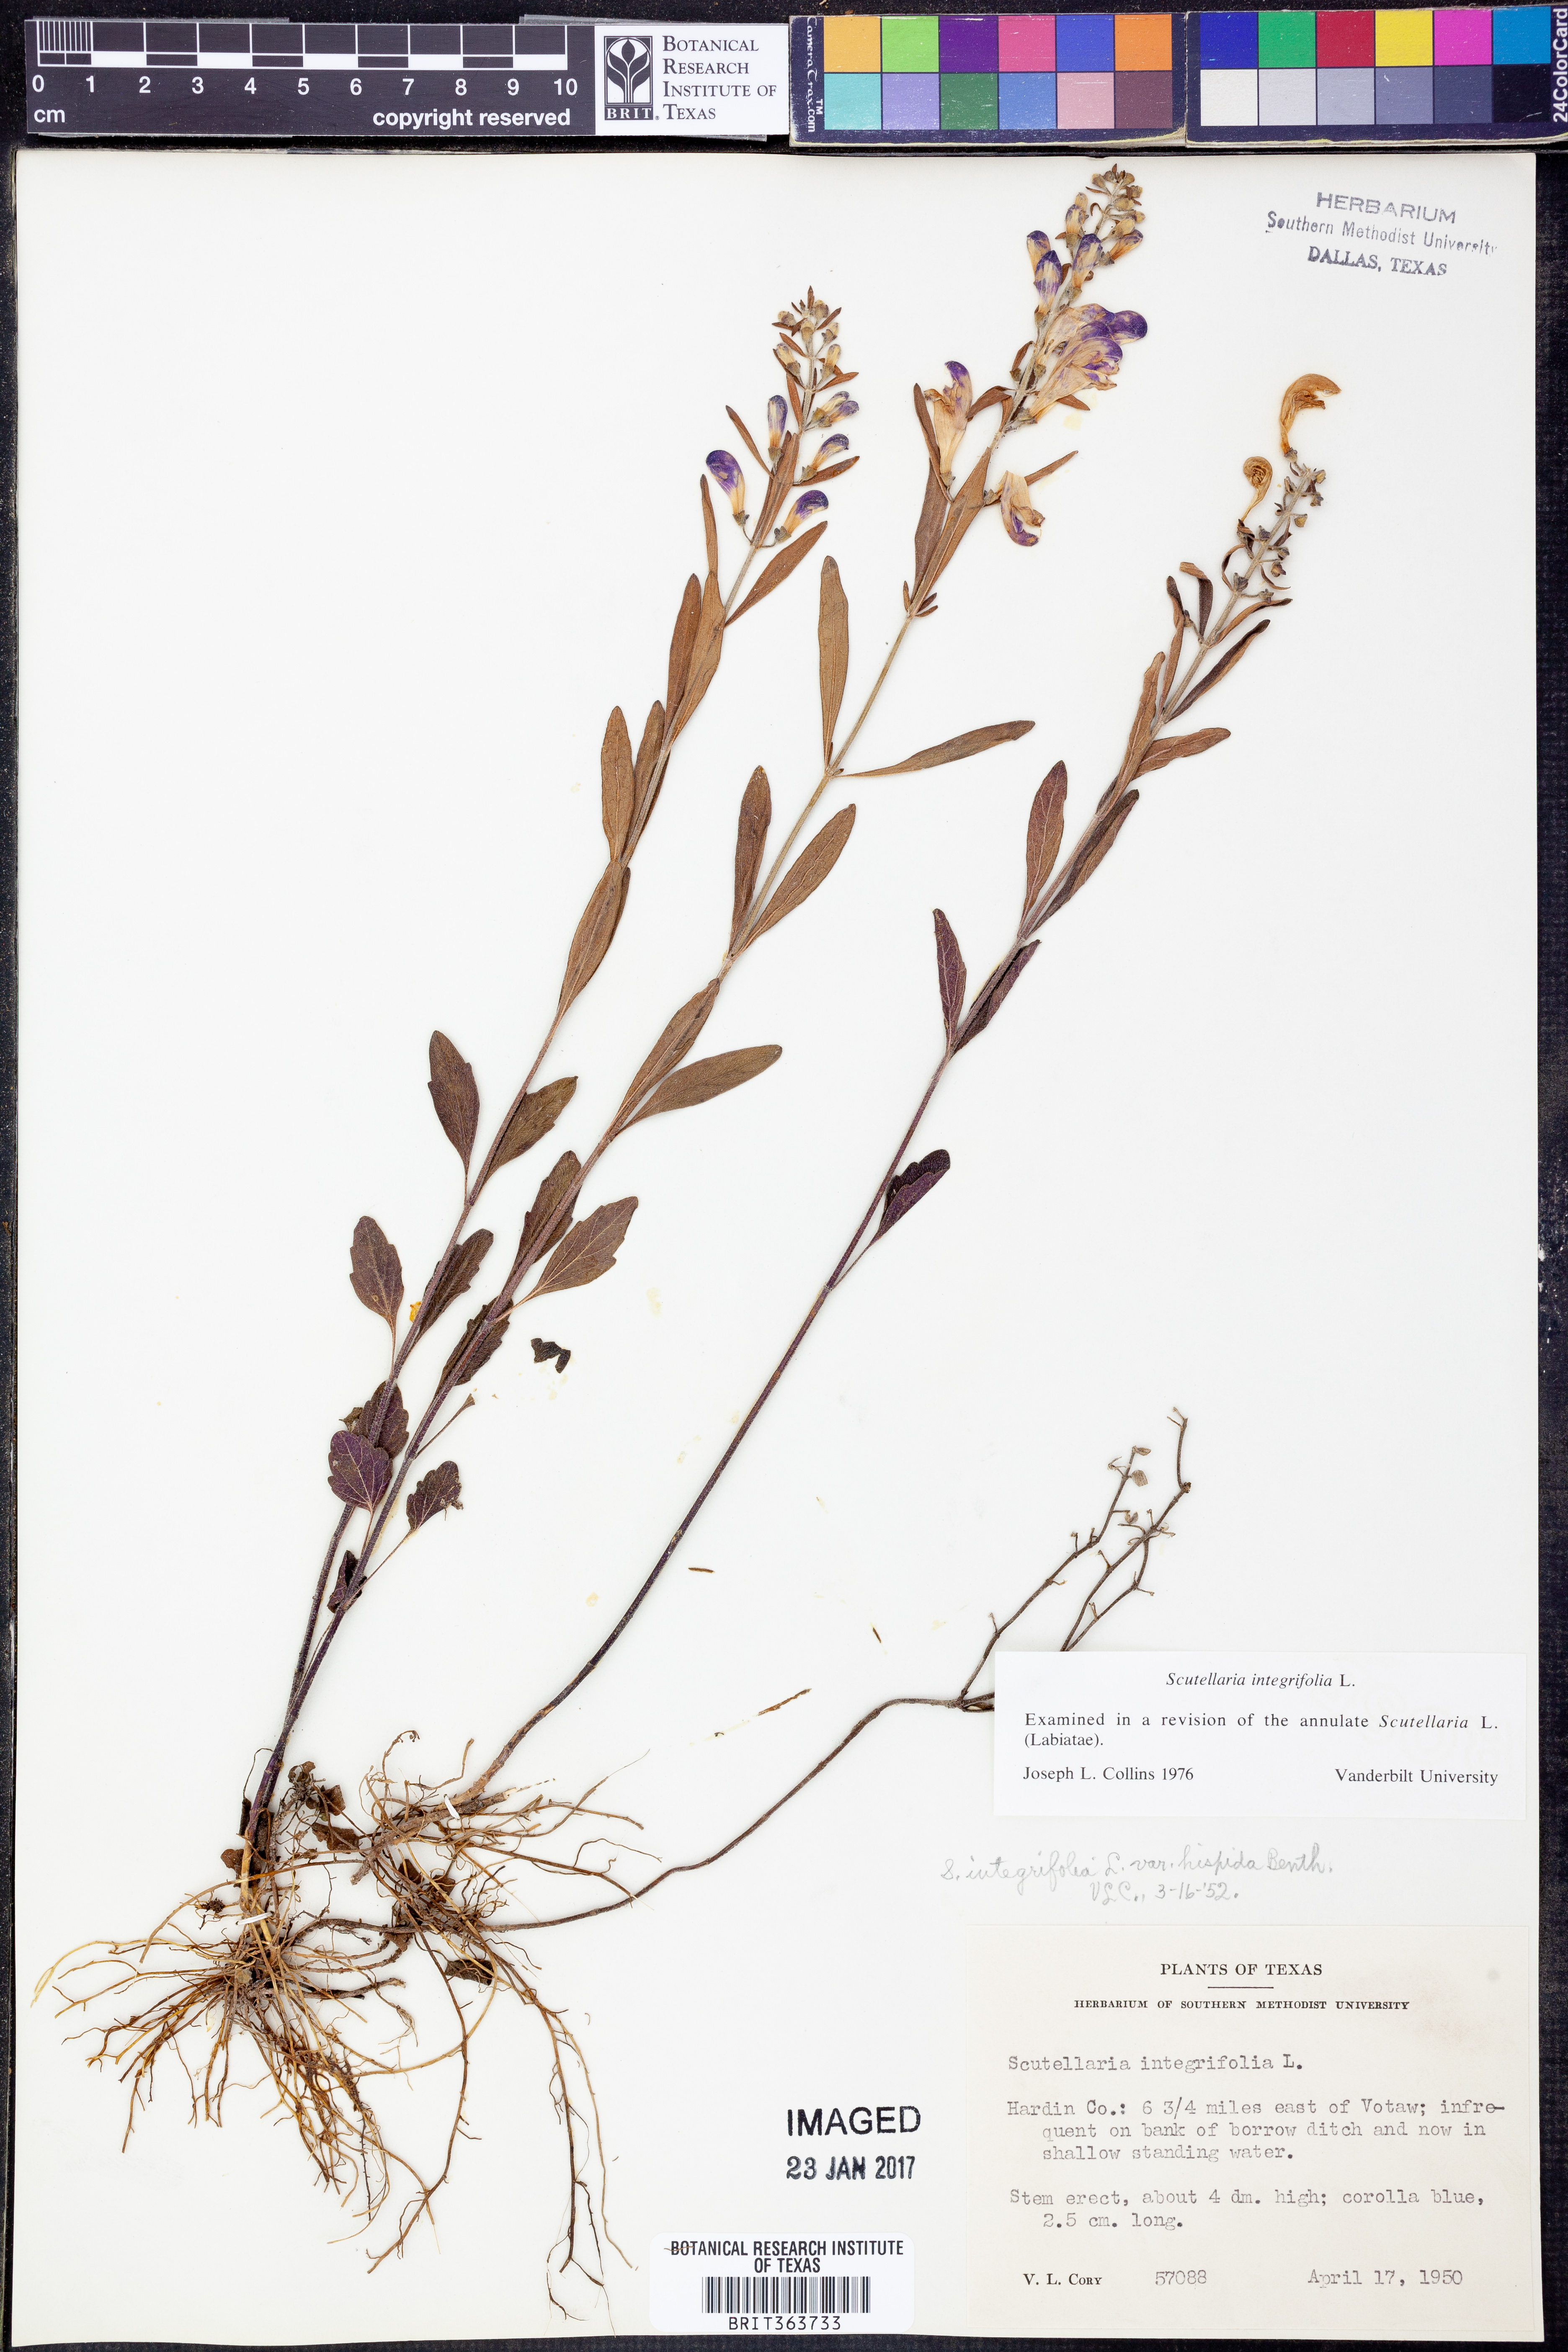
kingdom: Plantae
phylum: Tracheophyta
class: Magnoliopsida
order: Lamiales
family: Lamiaceae
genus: Scutellaria
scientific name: Scutellaria integrifolia
